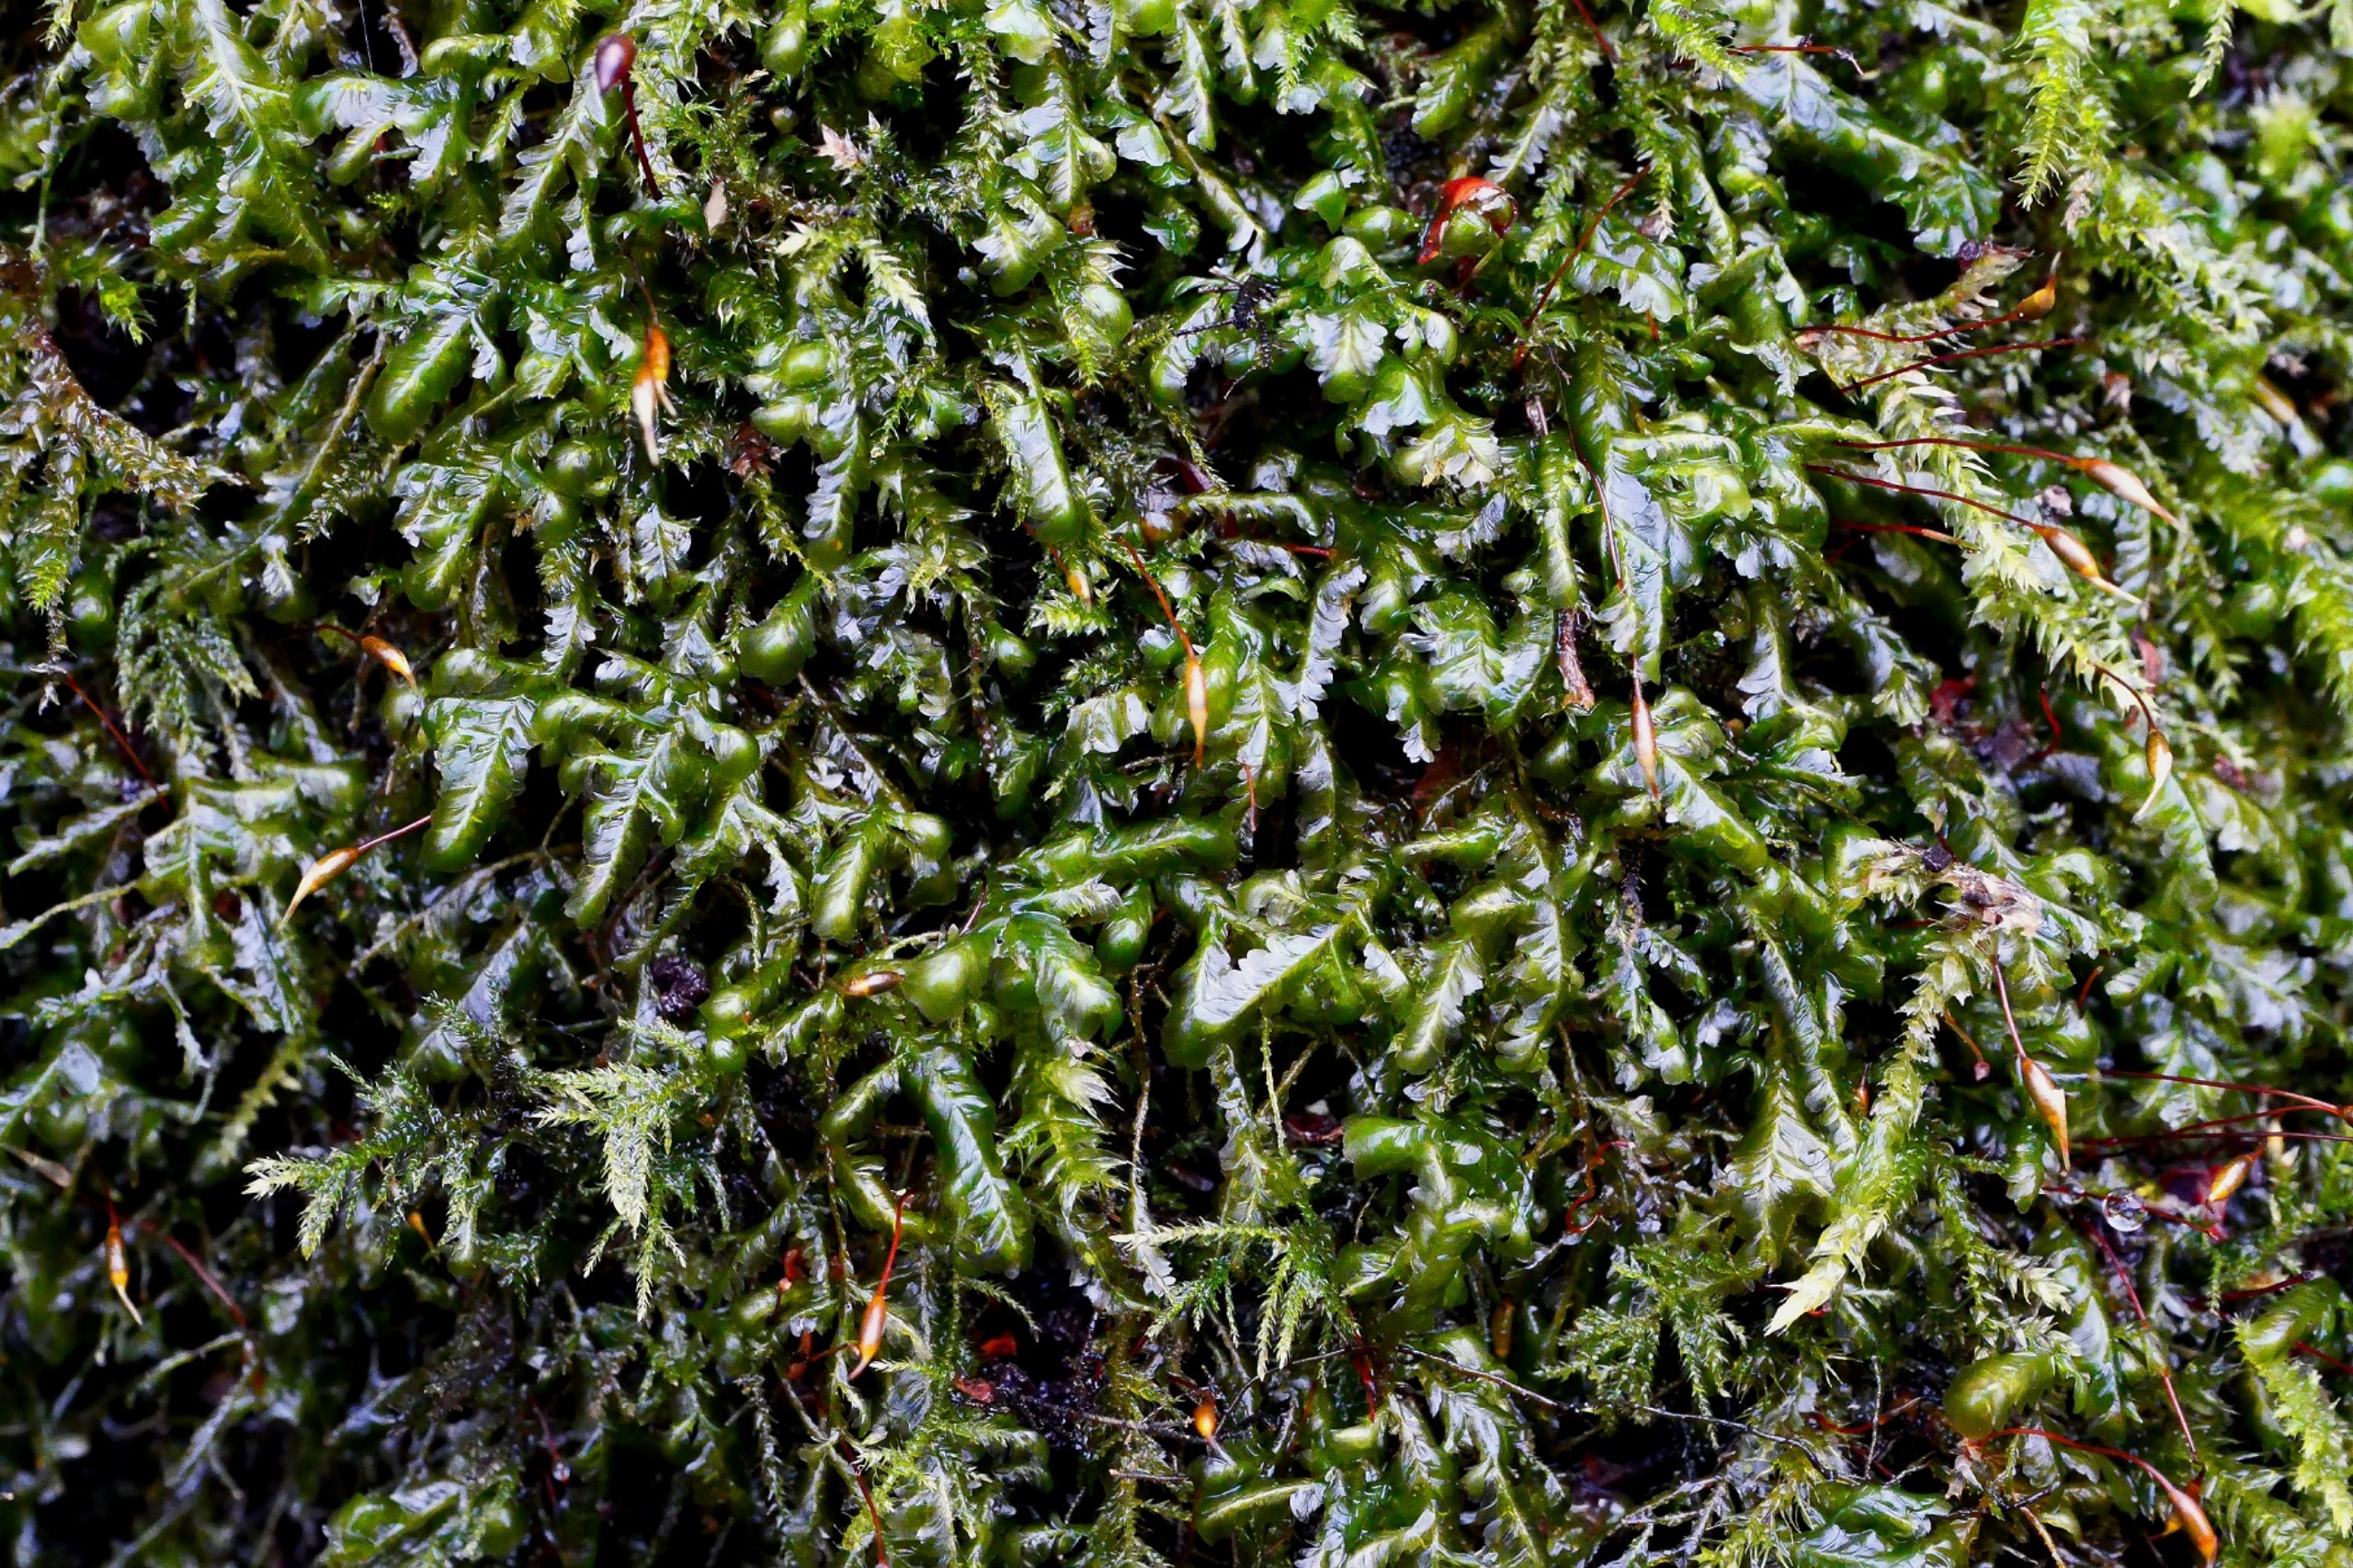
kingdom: Plantae
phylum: Bryophyta
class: Bryopsida
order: Hypnales
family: Neckeraceae
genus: Homalia
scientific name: Homalia trichomanoides
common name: Skov-tungemos
